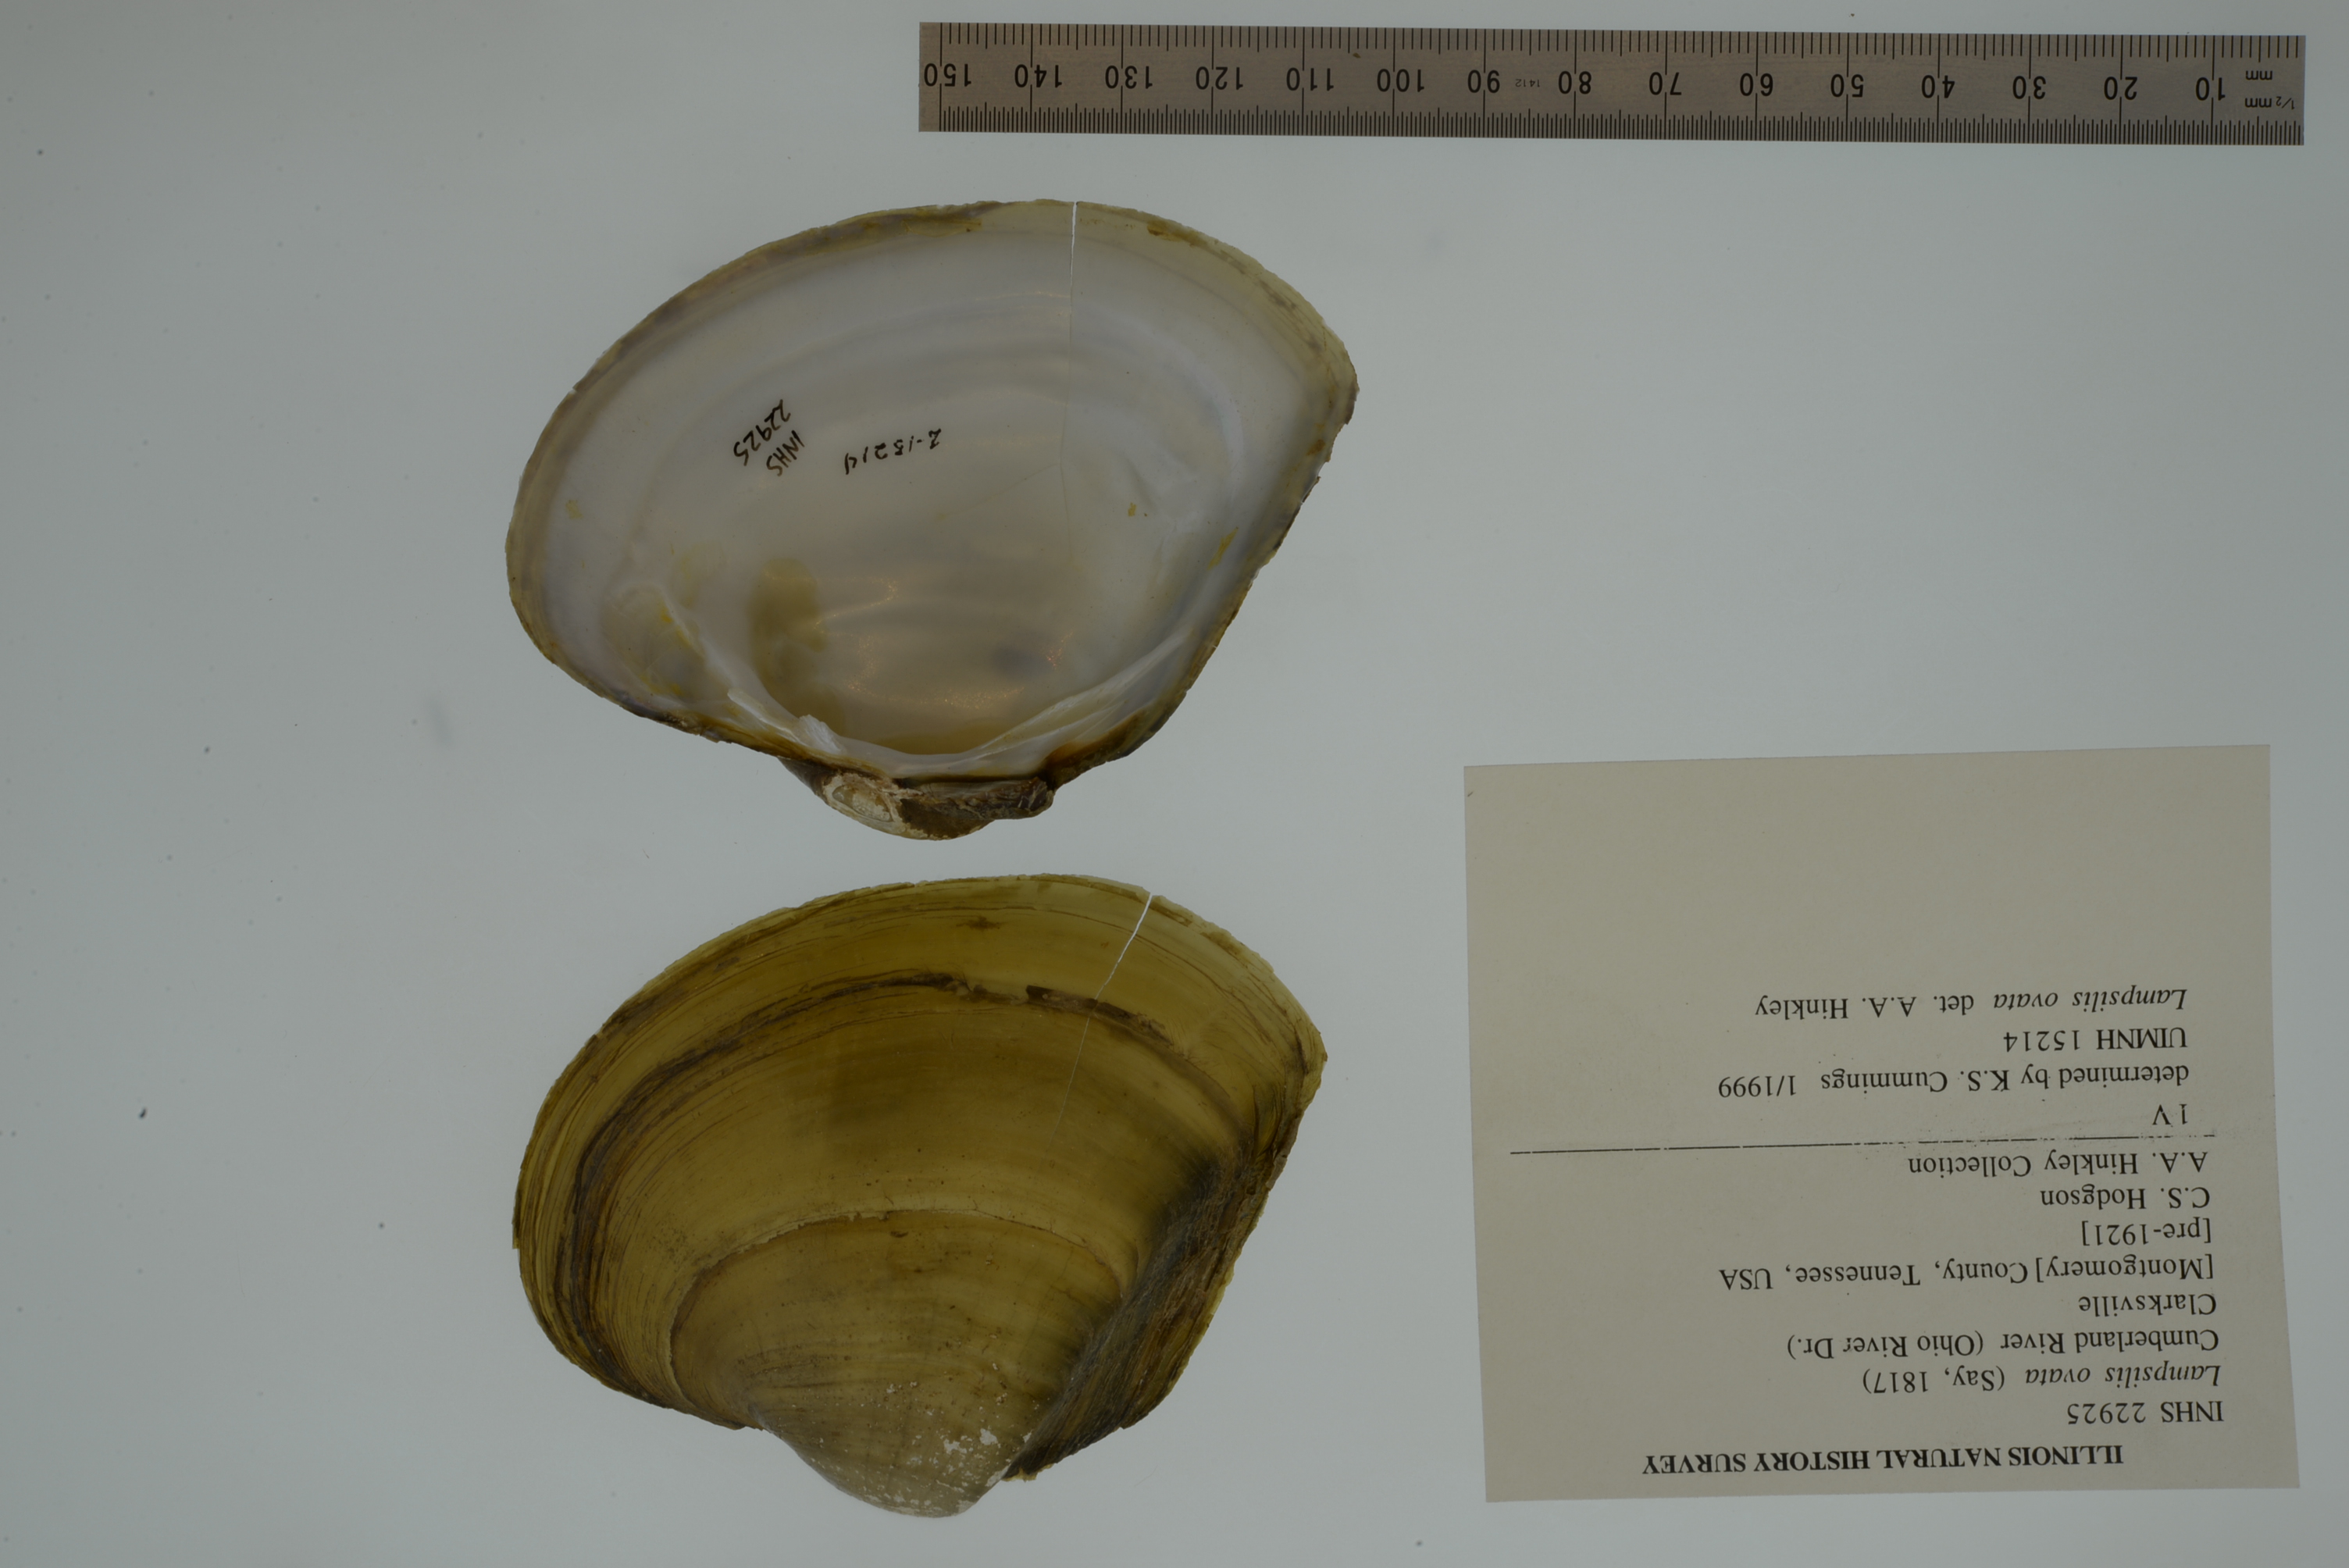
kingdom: Animalia
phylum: Mollusca
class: Bivalvia
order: Unionida
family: Unionidae
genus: Lampsilis
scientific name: Lampsilis ovata
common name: Pocketbook
